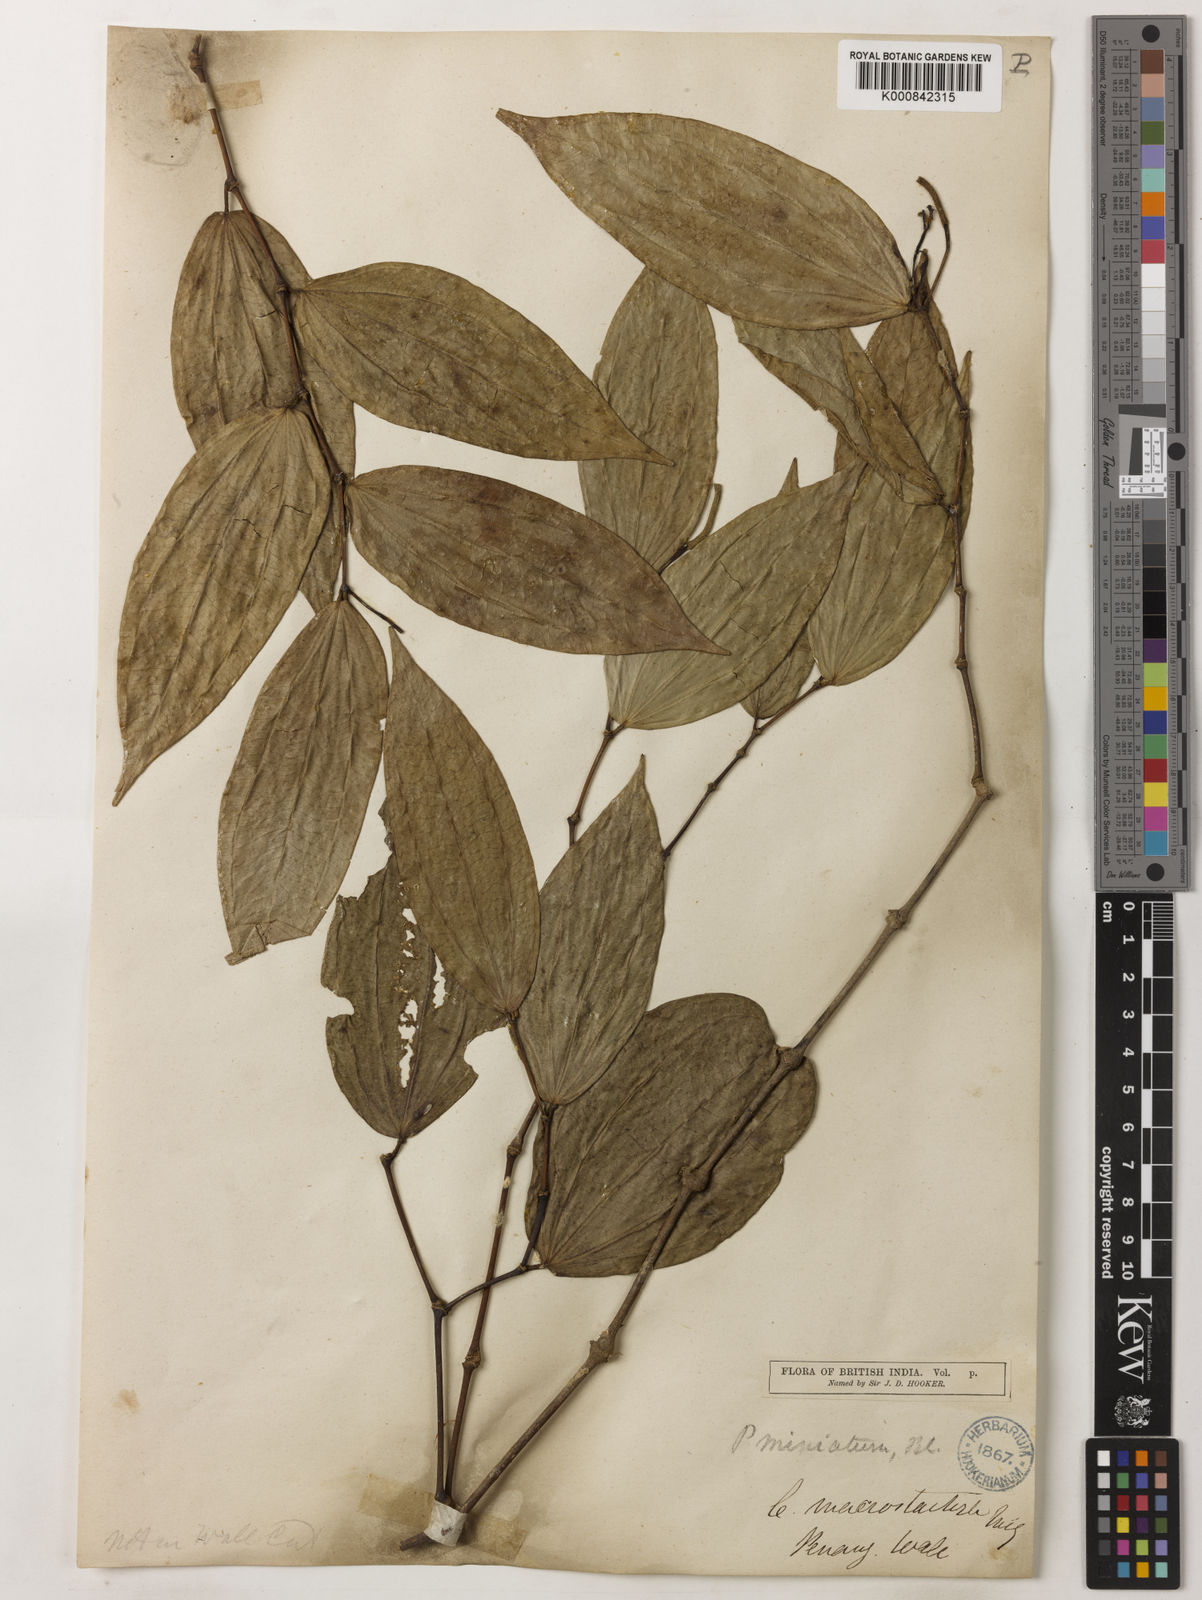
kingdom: Plantae
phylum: Tracheophyta
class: Magnoliopsida
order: Piperales
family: Piperaceae
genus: Piper
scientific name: Piper macropiper
